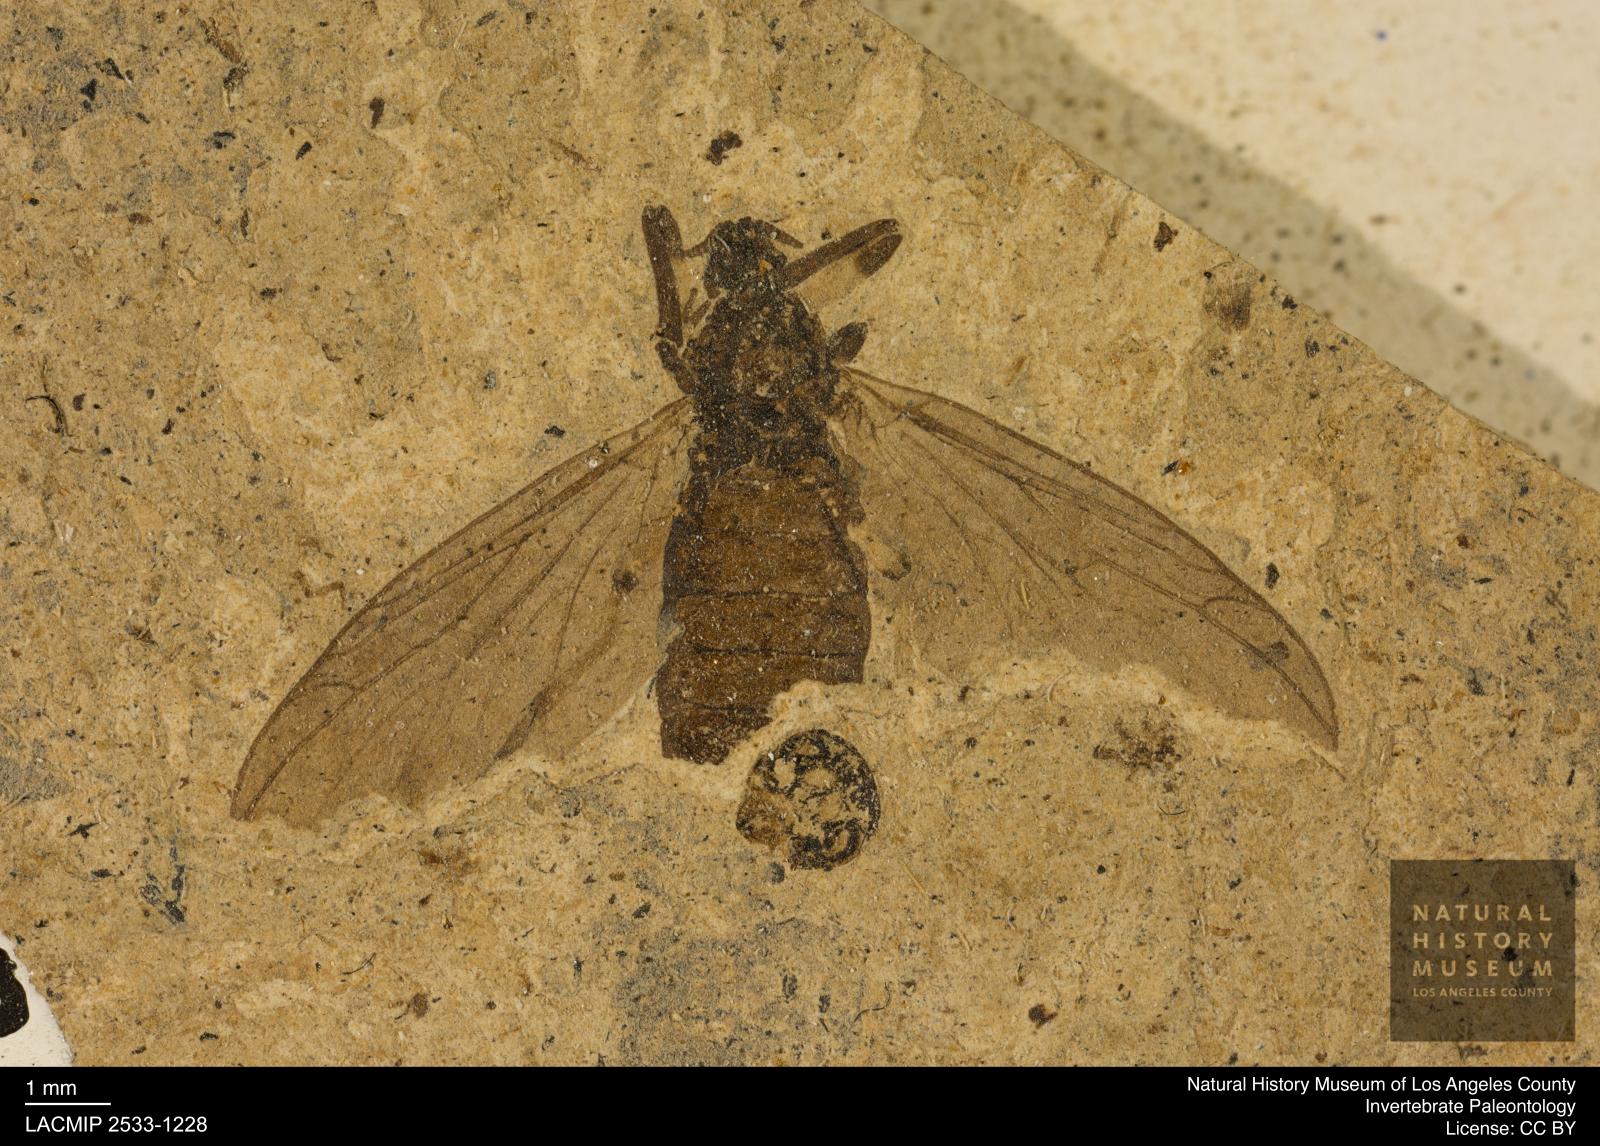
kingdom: Animalia
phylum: Arthropoda
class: Insecta
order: Diptera
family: Bibionidae
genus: Plecia
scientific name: Plecia grossa
